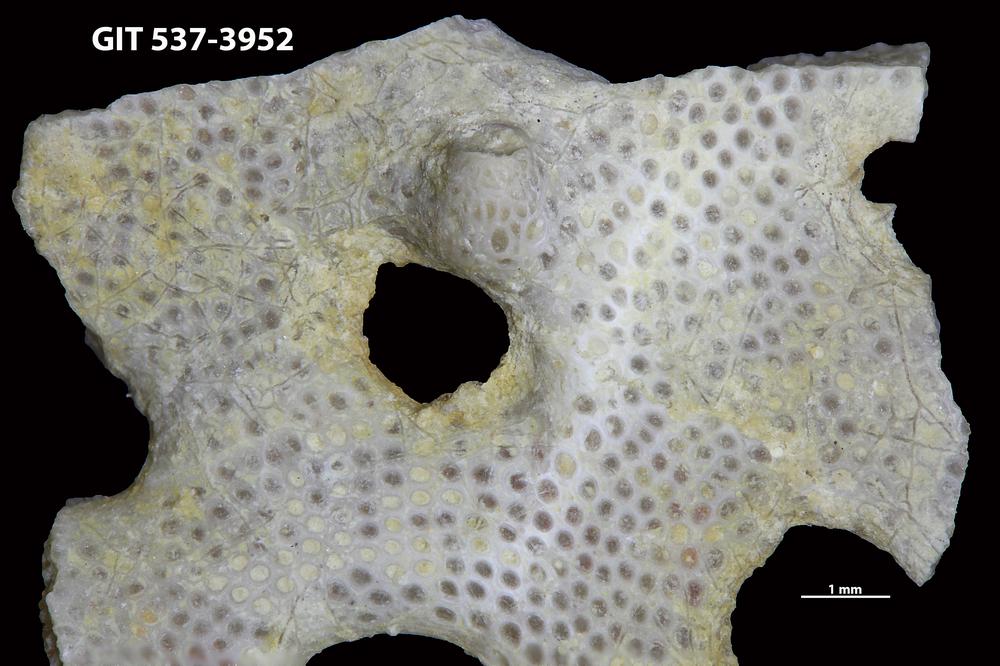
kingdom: Animalia
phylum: Bryozoa
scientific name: Bryozoa
